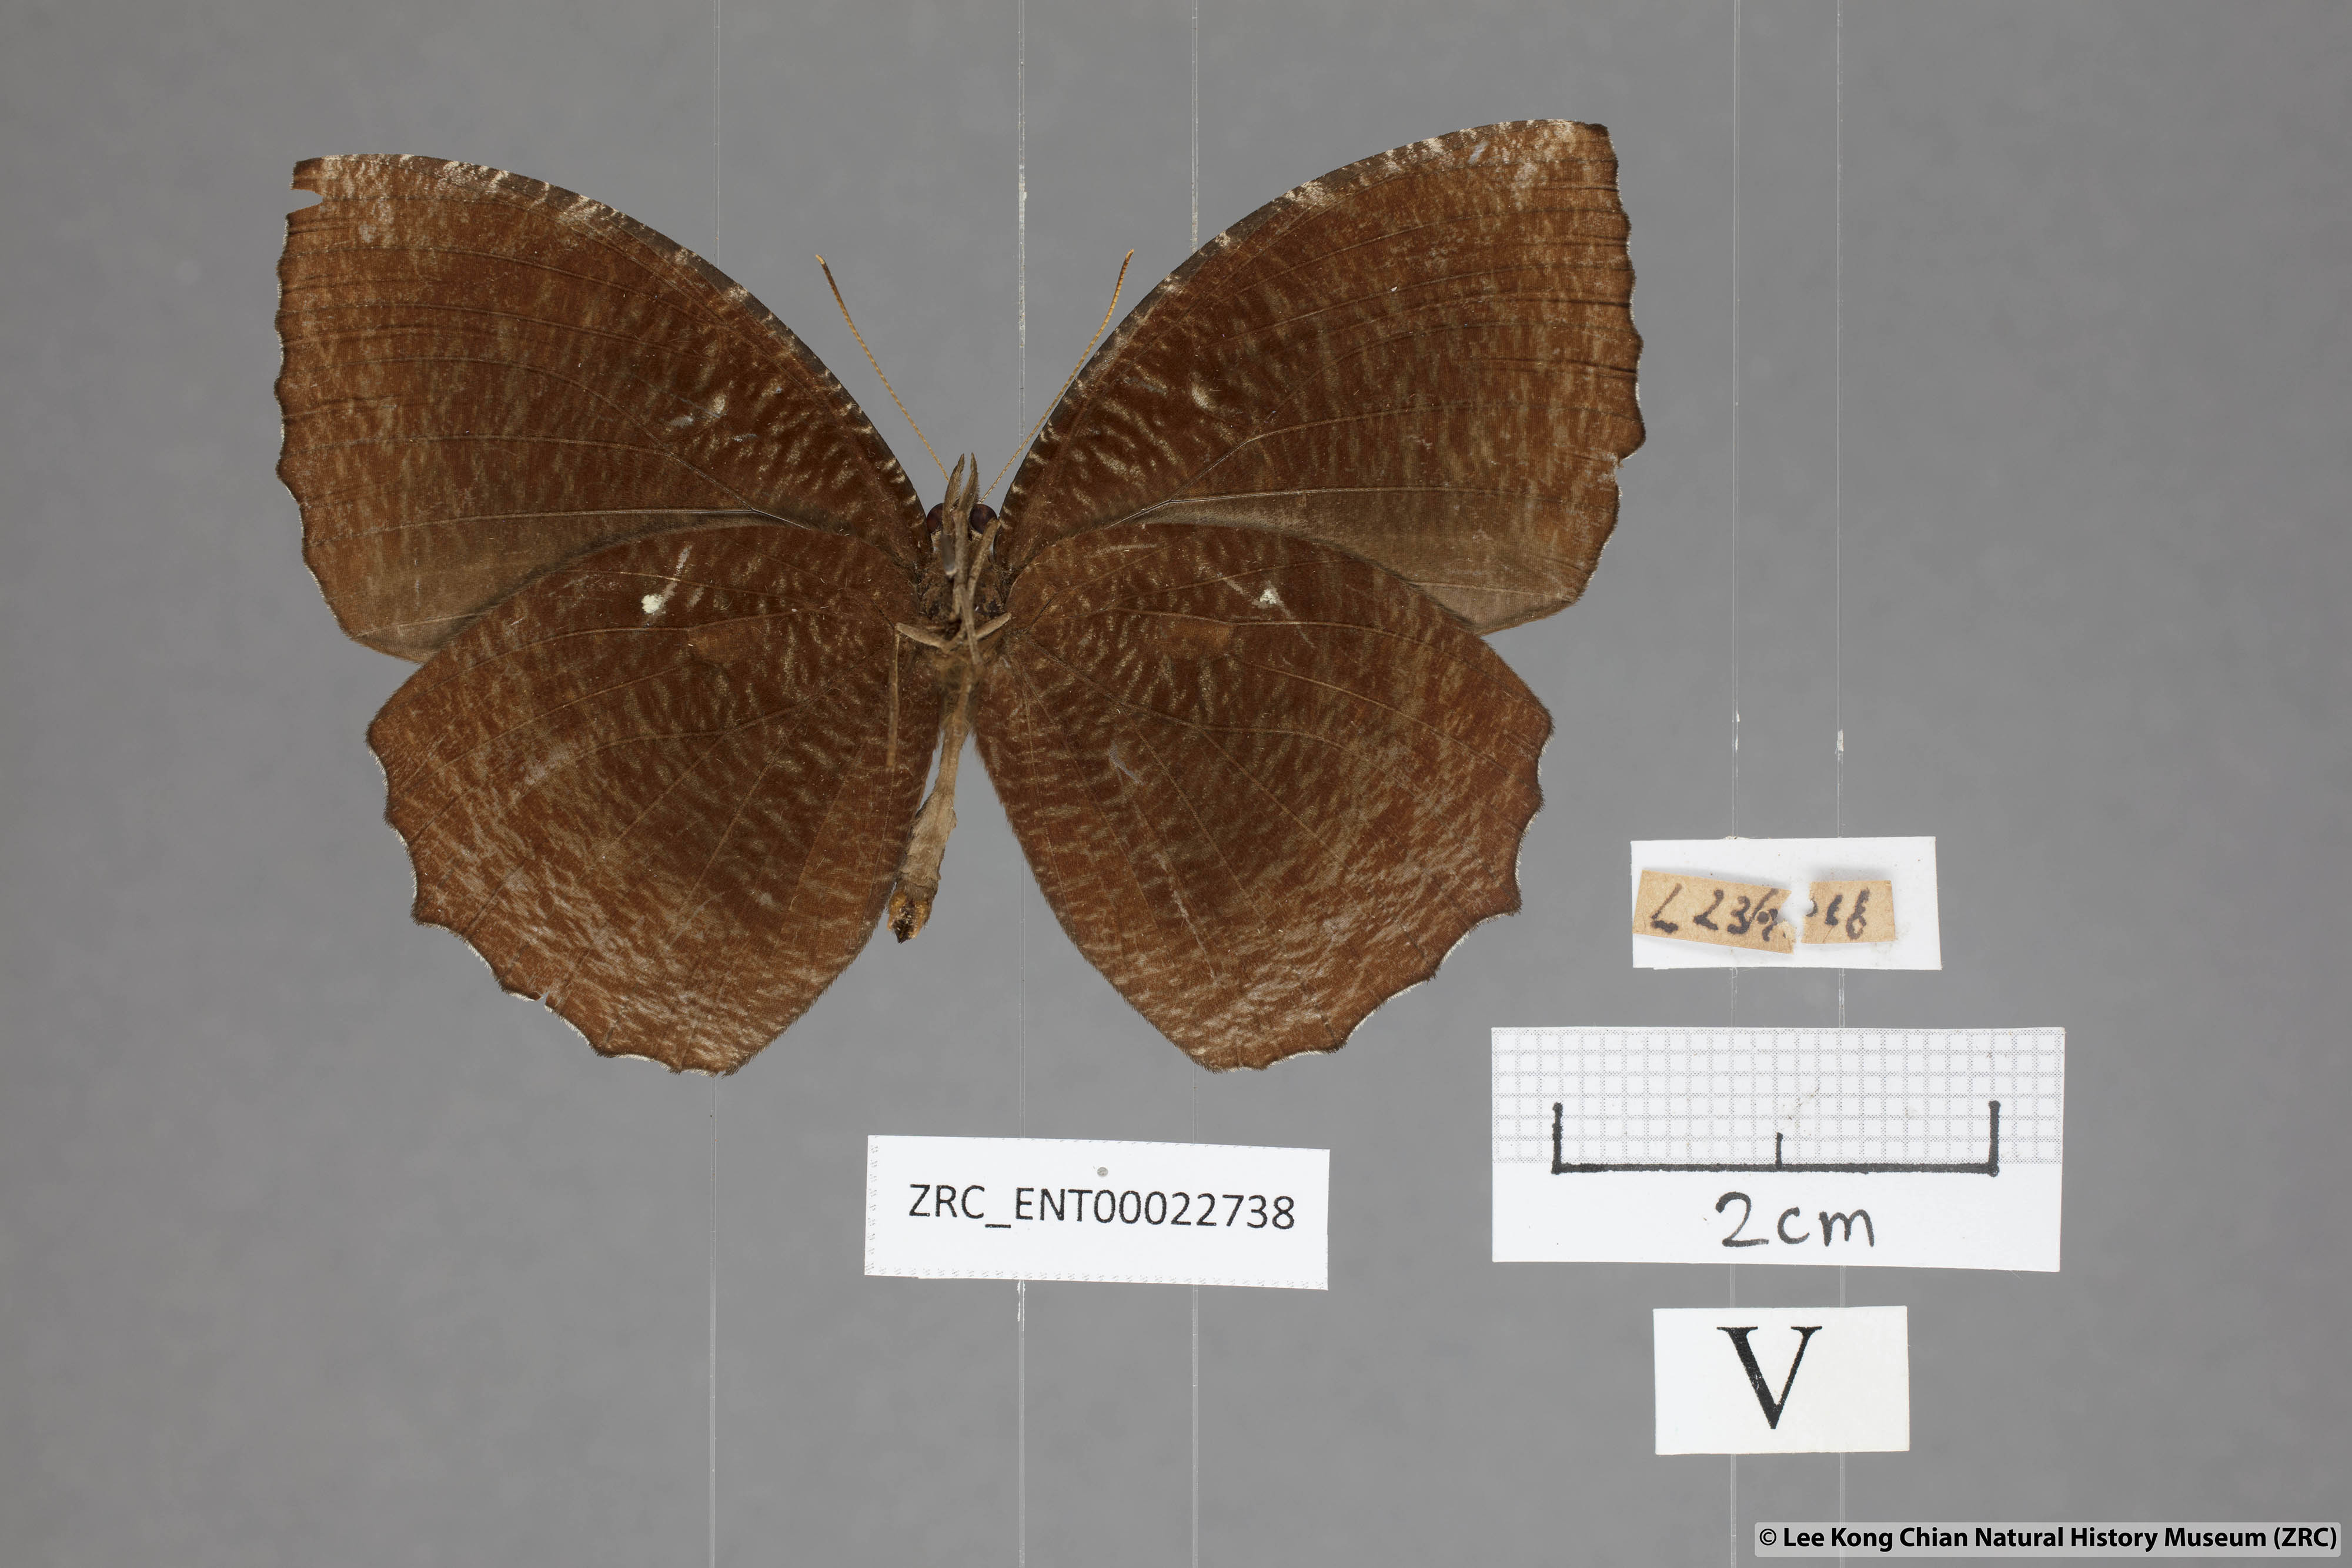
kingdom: Animalia
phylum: Arthropoda
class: Insecta
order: Lepidoptera
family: Nymphalidae
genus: Elymnias
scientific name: Elymnias hypermnestra
